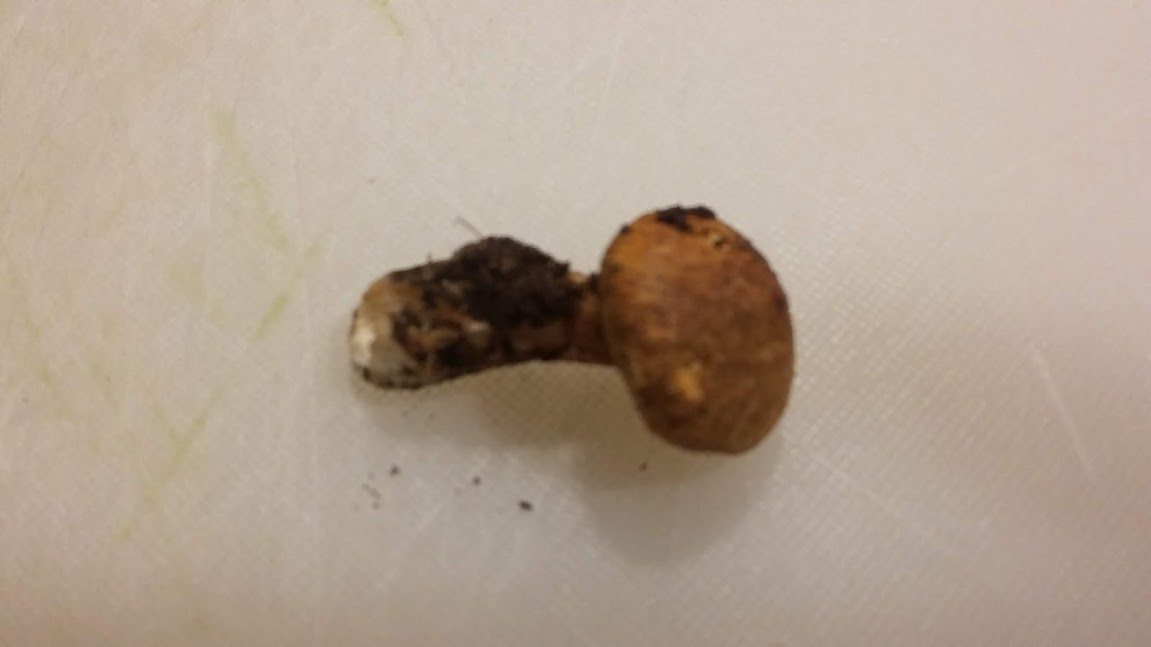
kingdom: Fungi
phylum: Basidiomycota
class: Agaricomycetes
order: Boletales
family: Suillaceae
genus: Suillus
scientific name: Suillus cavipes
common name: hulstokket slimrørhat
